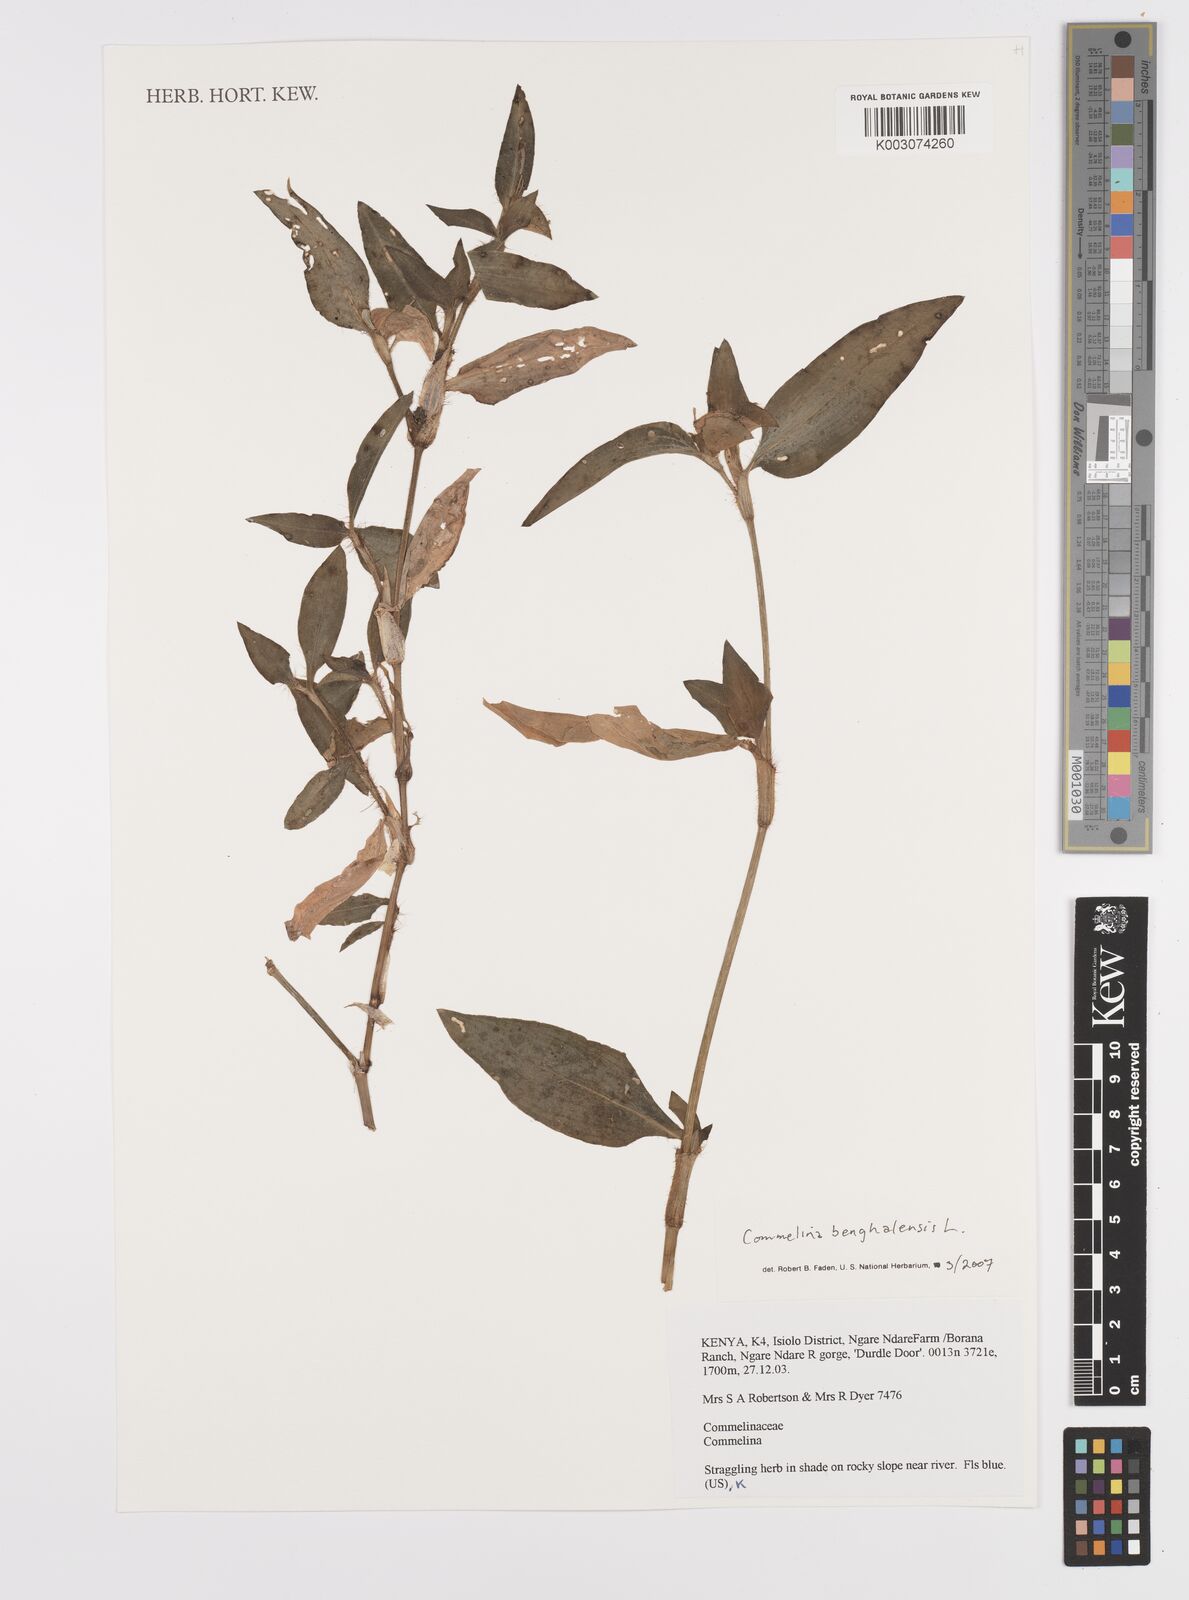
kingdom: Plantae
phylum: Tracheophyta
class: Liliopsida
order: Commelinales
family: Commelinaceae
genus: Commelina
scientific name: Commelina benghalensis
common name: Jio
